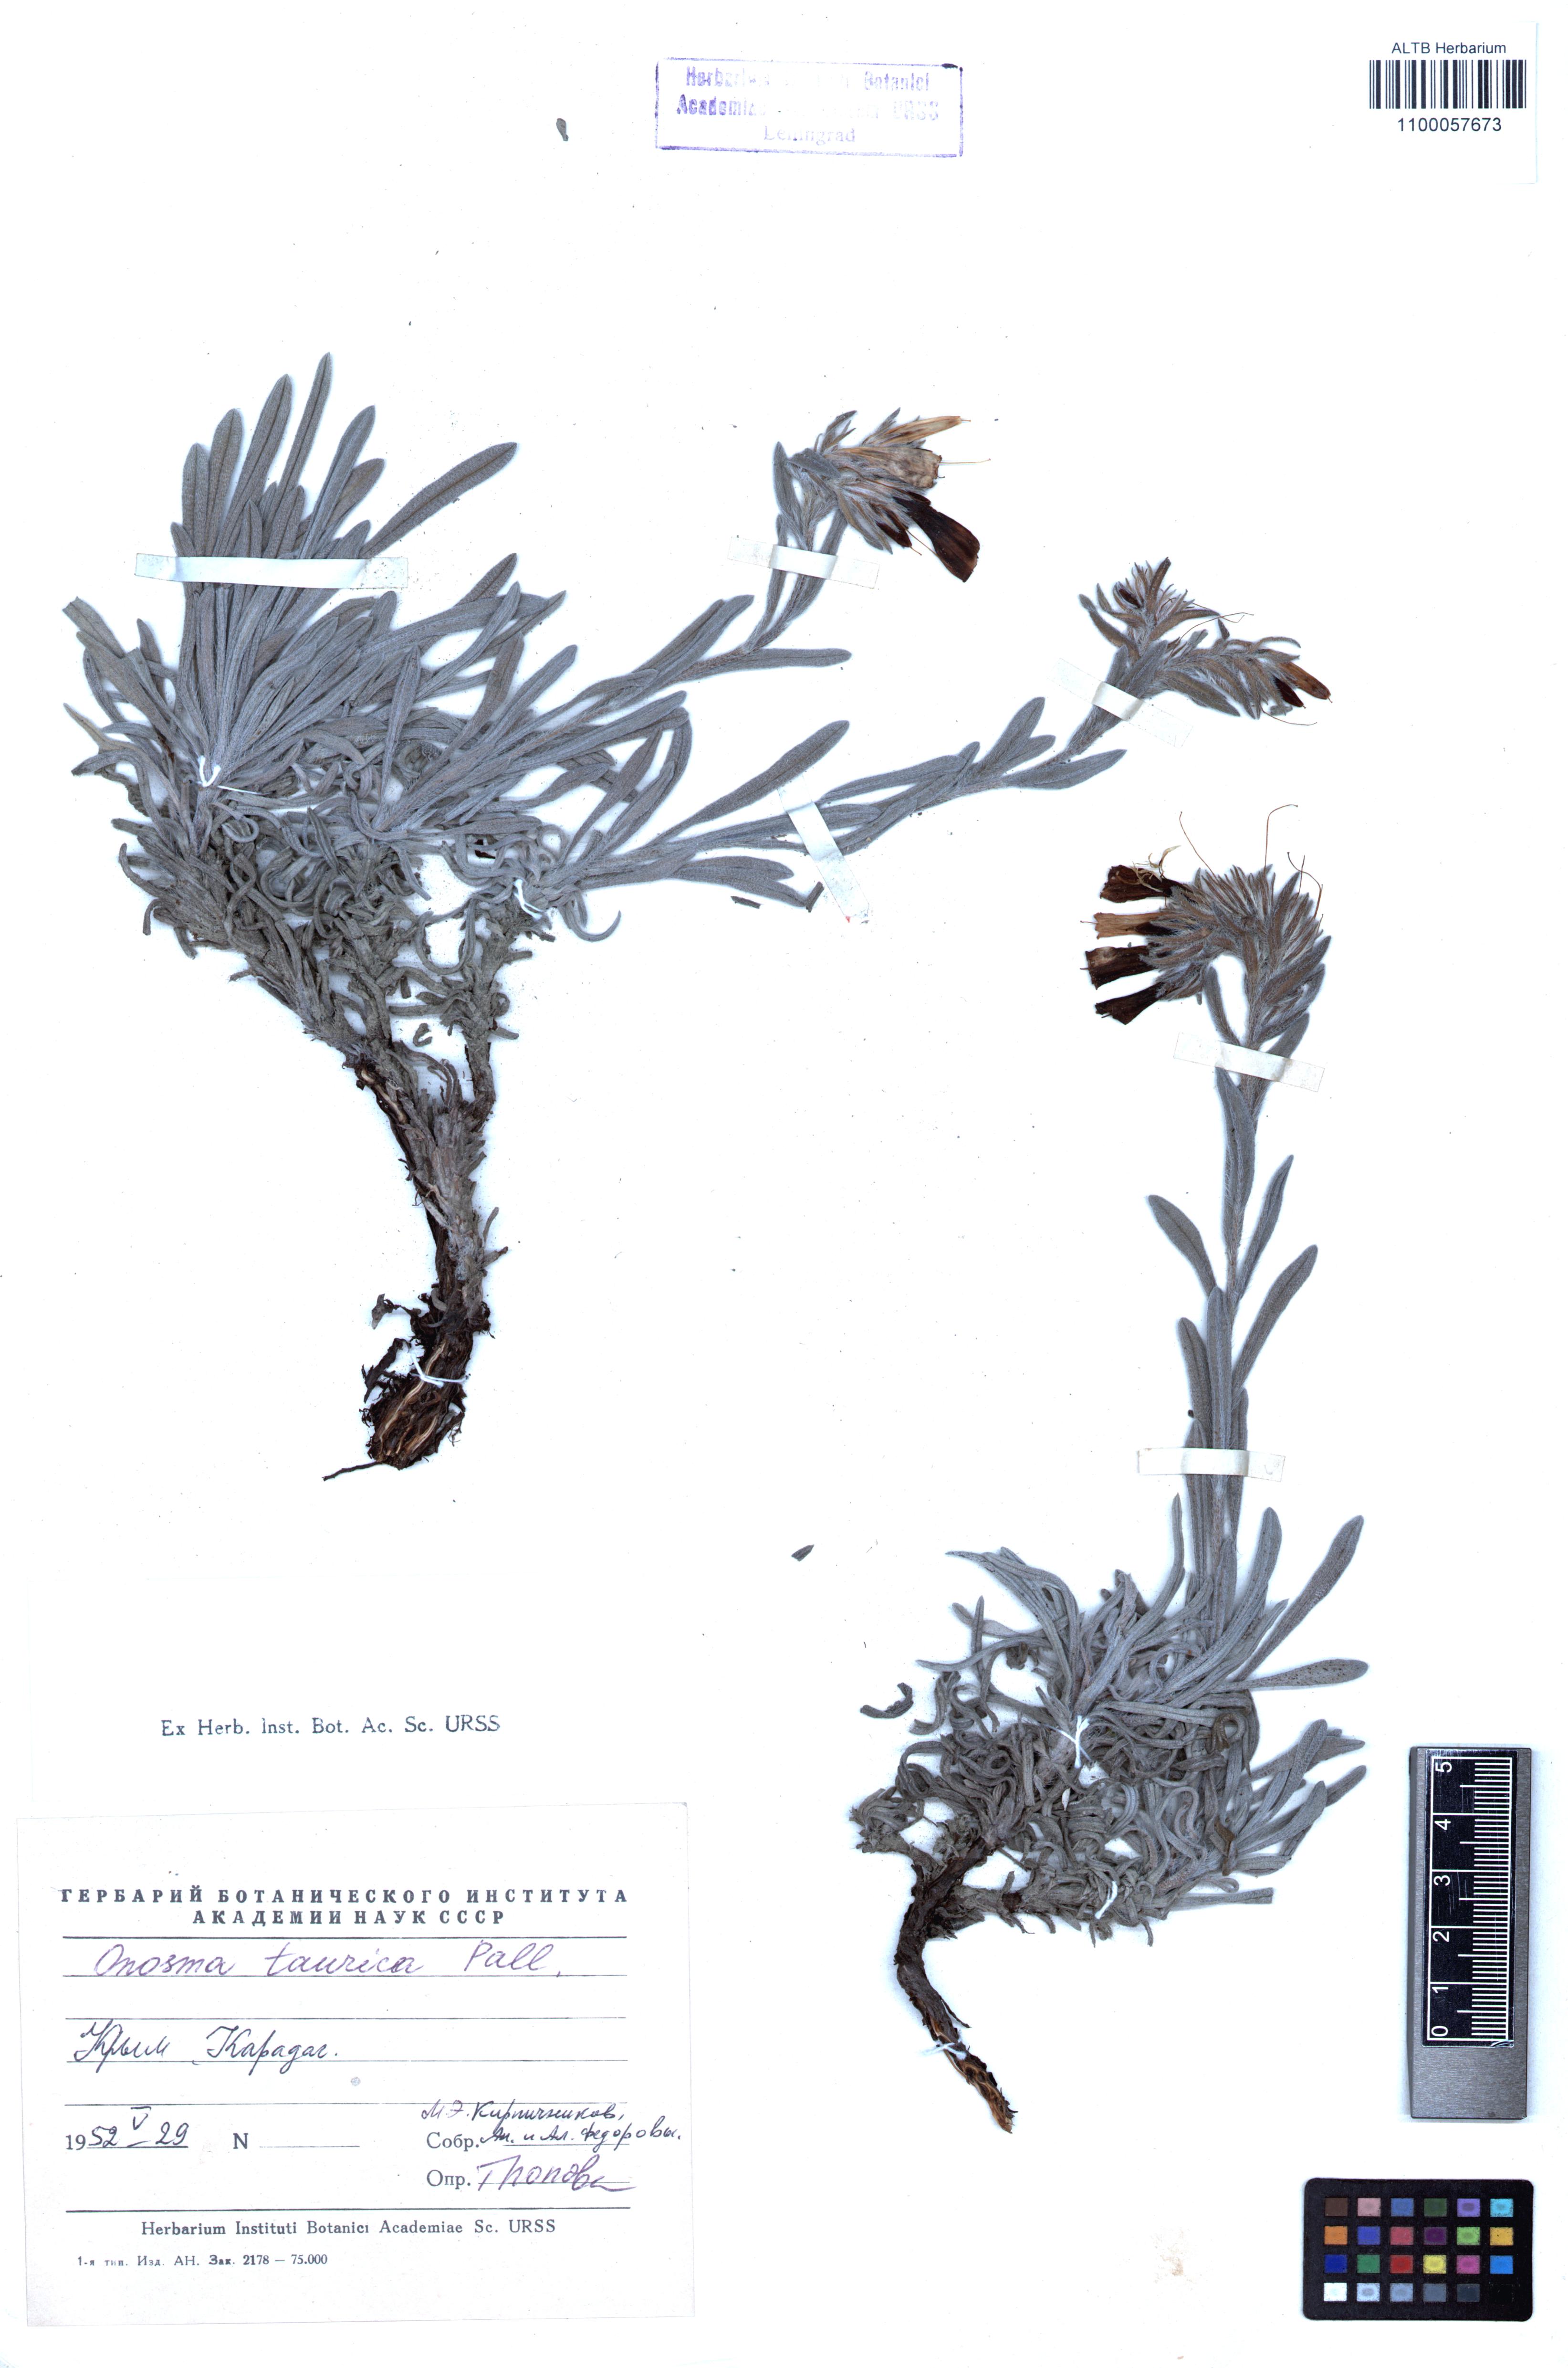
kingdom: Plantae
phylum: Tracheophyta
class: Magnoliopsida
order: Boraginales
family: Boraginaceae
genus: Onosma
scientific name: Onosma taurica
